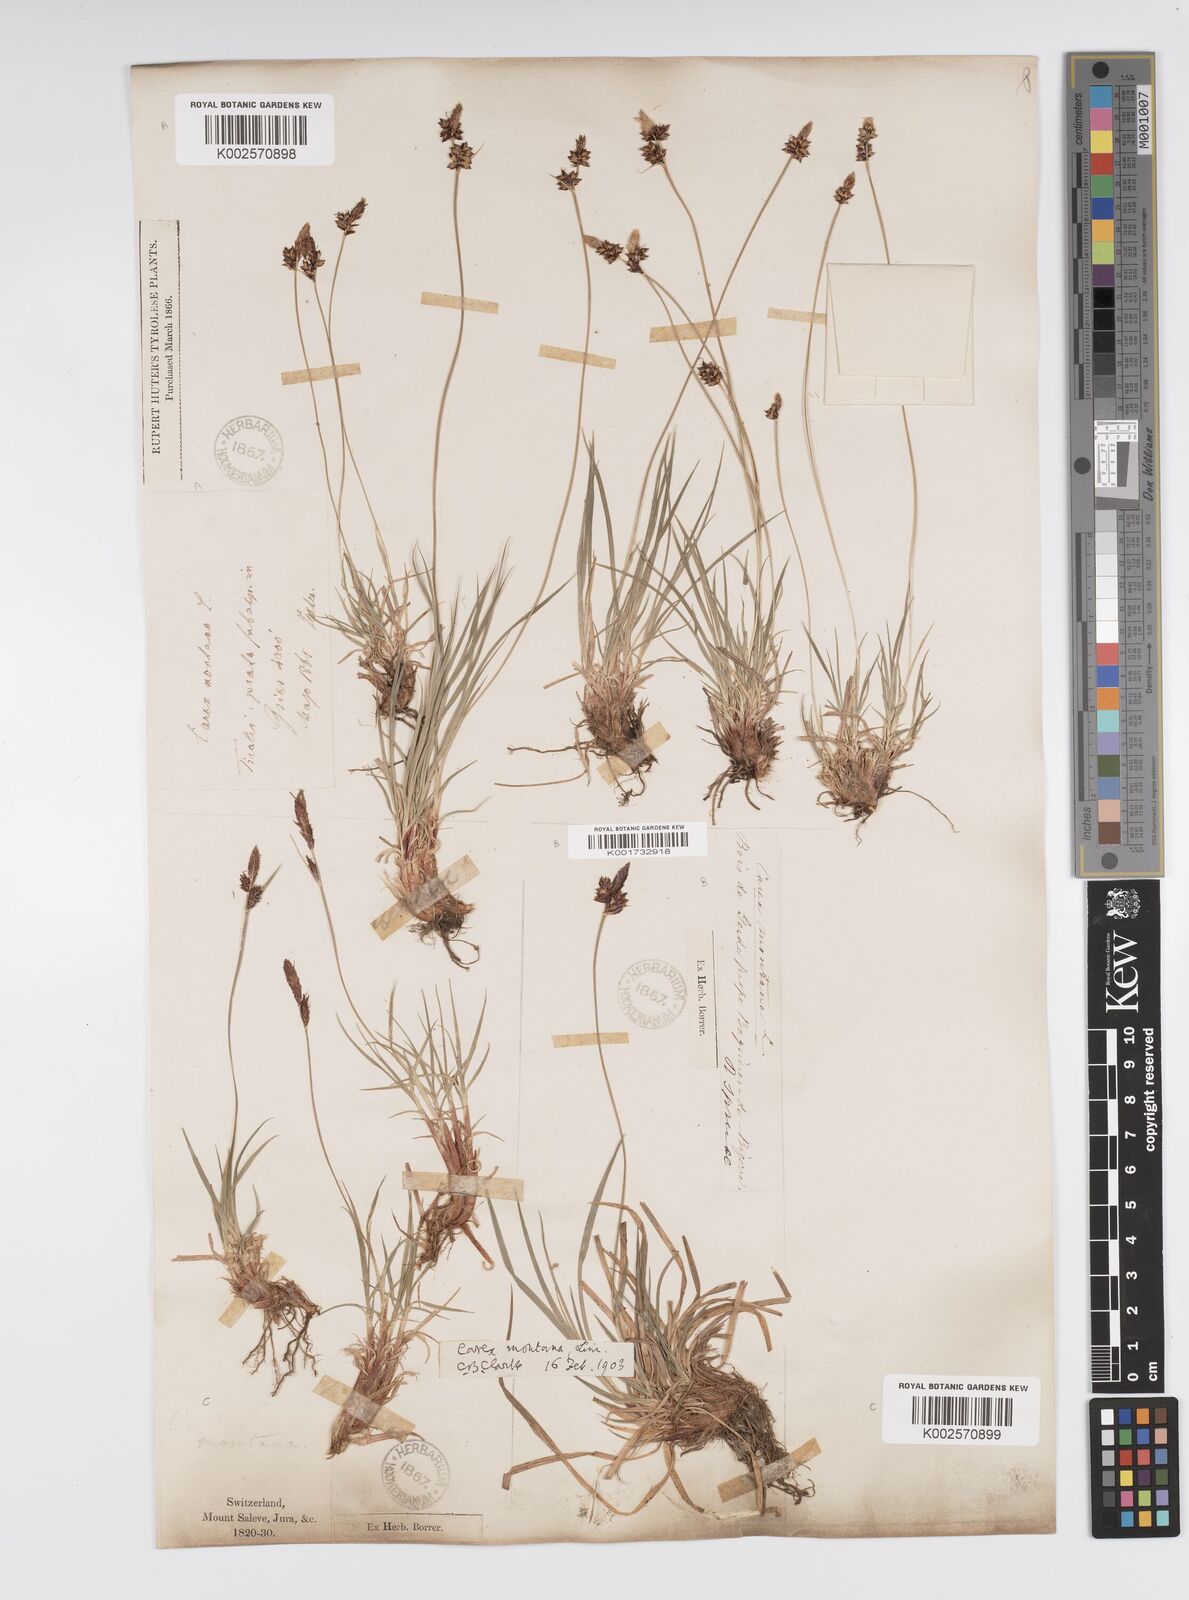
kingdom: Plantae
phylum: Tracheophyta
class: Liliopsida
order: Poales
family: Cyperaceae
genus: Carex
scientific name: Carex montana
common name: Soft-leaved sedge
